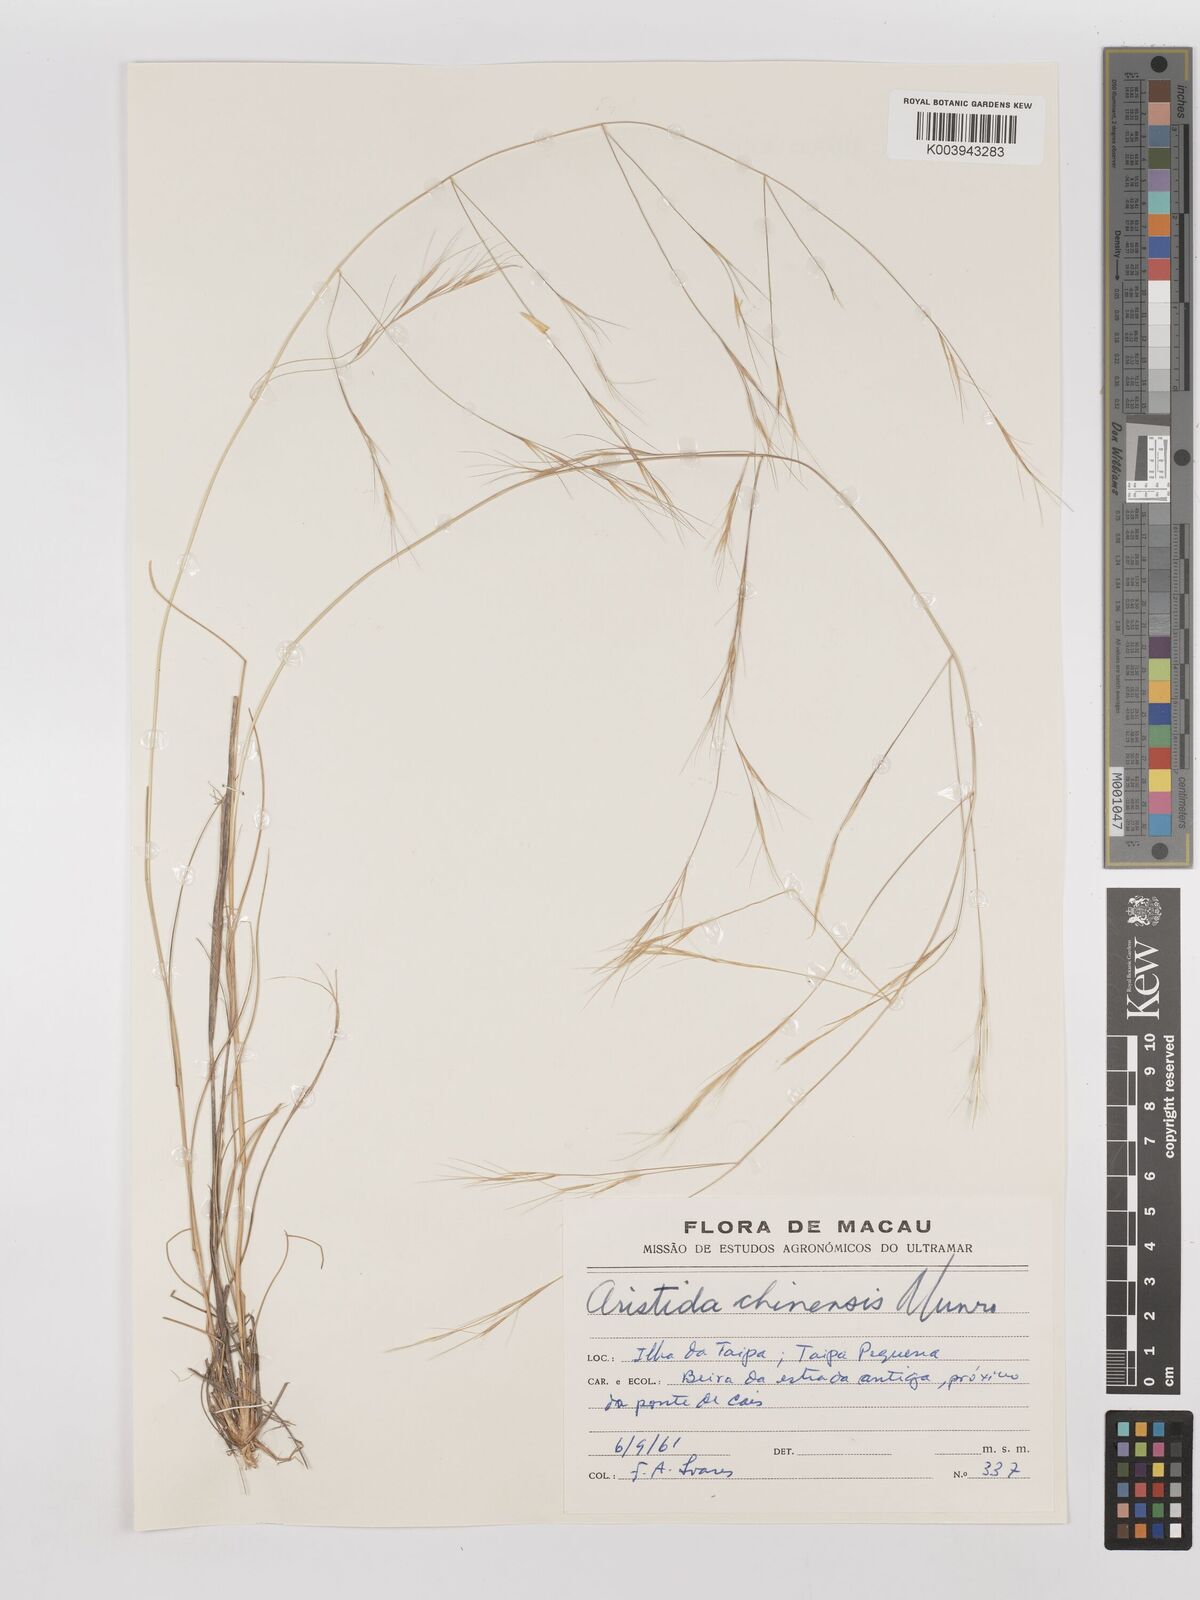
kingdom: Plantae
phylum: Tracheophyta
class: Liliopsida
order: Poales
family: Poaceae
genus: Aristida
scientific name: Aristida chinensis
